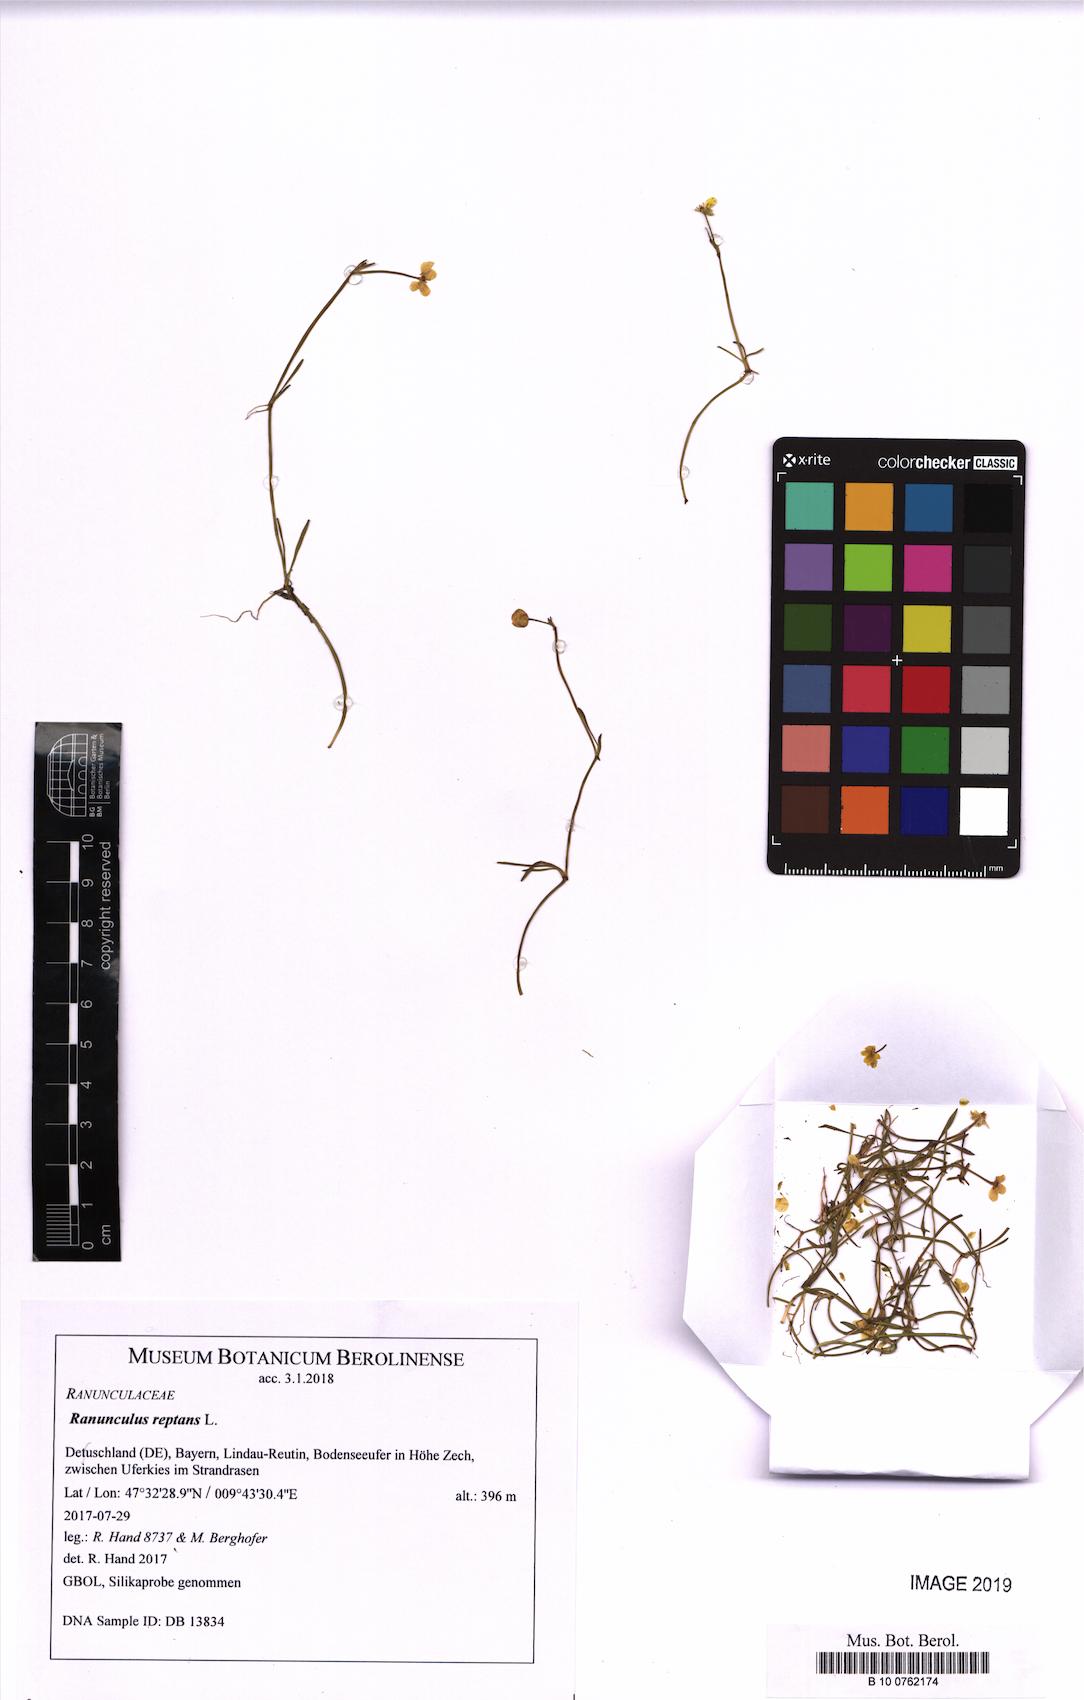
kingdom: Plantae
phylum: Tracheophyta
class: Magnoliopsida
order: Ranunculales
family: Ranunculaceae
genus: Ranunculus
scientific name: Ranunculus reptans
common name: Creeping spearwort
